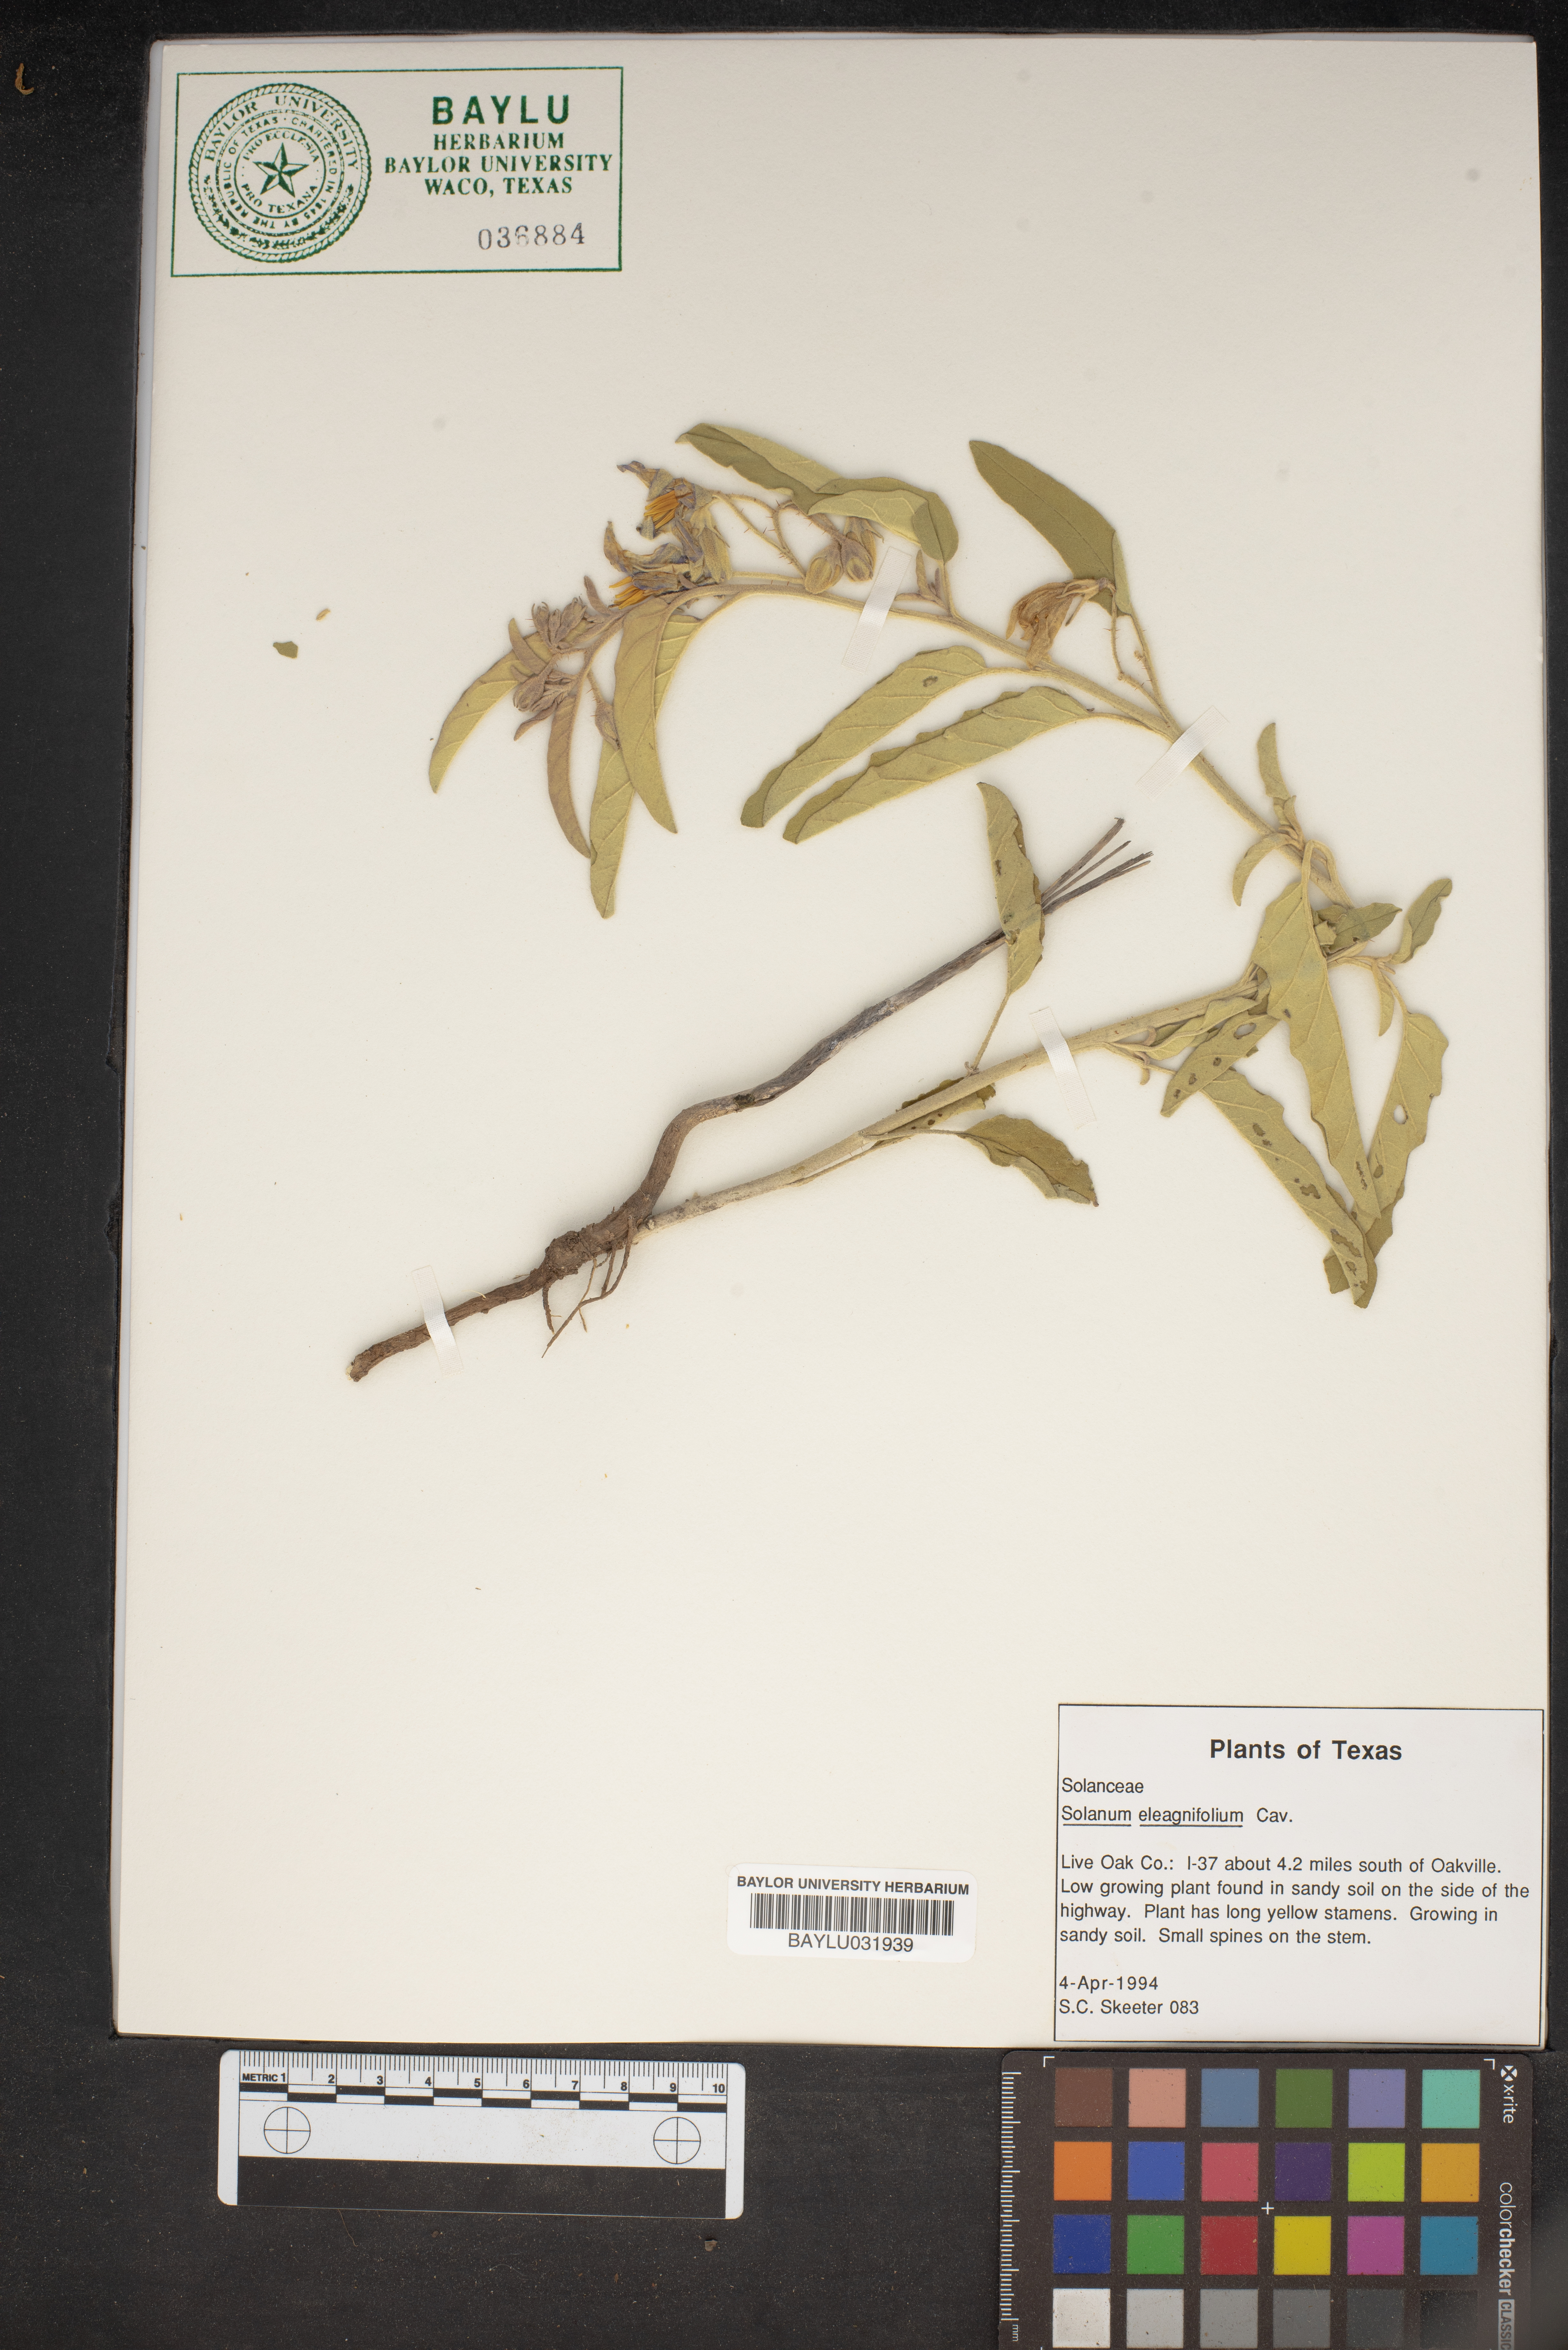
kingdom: Plantae
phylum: Tracheophyta
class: Magnoliopsida
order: Solanales
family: Solanaceae
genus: Solanum
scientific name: Solanum elaeagnifolium
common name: Silverleaf nightshade
